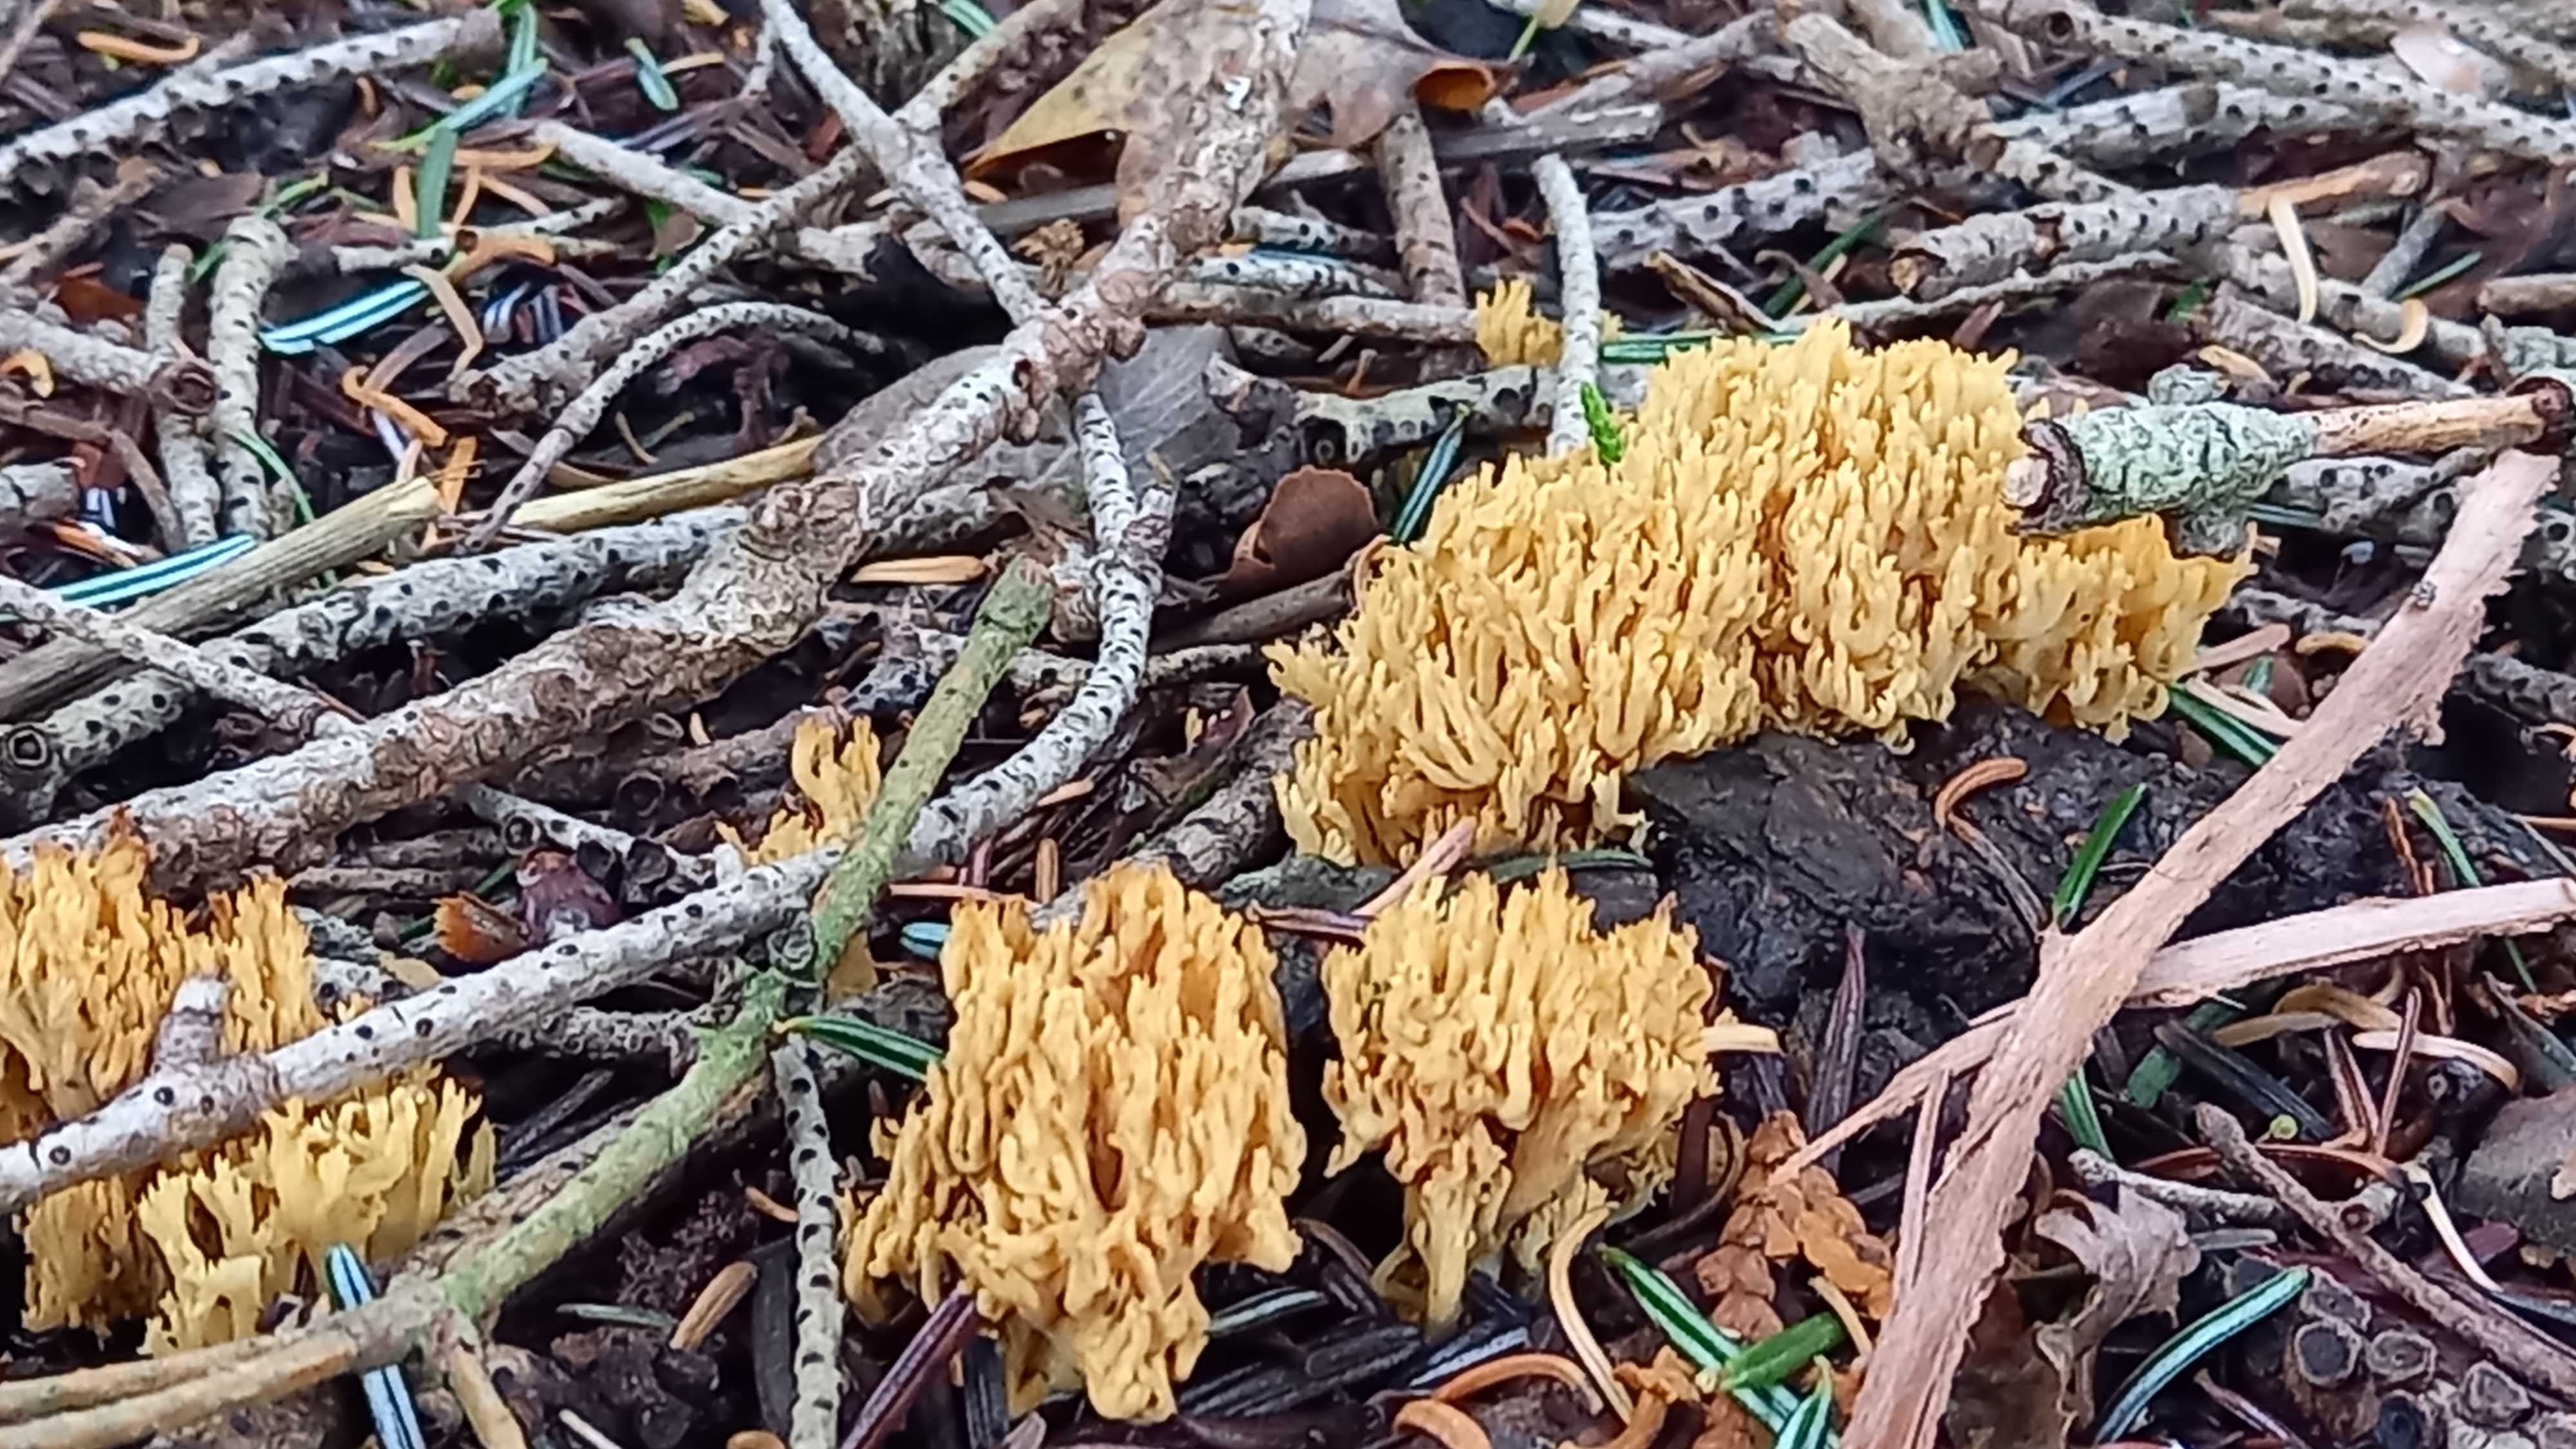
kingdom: Fungi
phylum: Basidiomycota
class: Agaricomycetes
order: Gomphales
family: Gomphaceae
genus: Phaeoclavulina
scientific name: Phaeoclavulina eumorpha
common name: gran-koralsvamp
